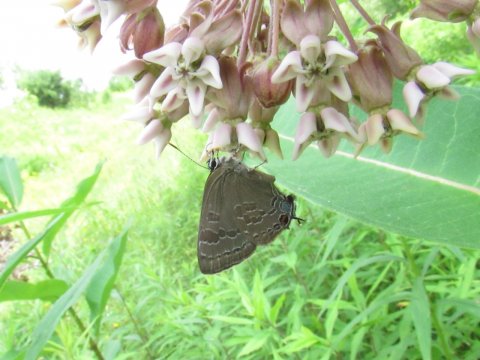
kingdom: Animalia
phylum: Arthropoda
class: Insecta
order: Lepidoptera
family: Lycaenidae
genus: Strymon
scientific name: Strymon caryaevorus
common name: Hickory Hairstreak
